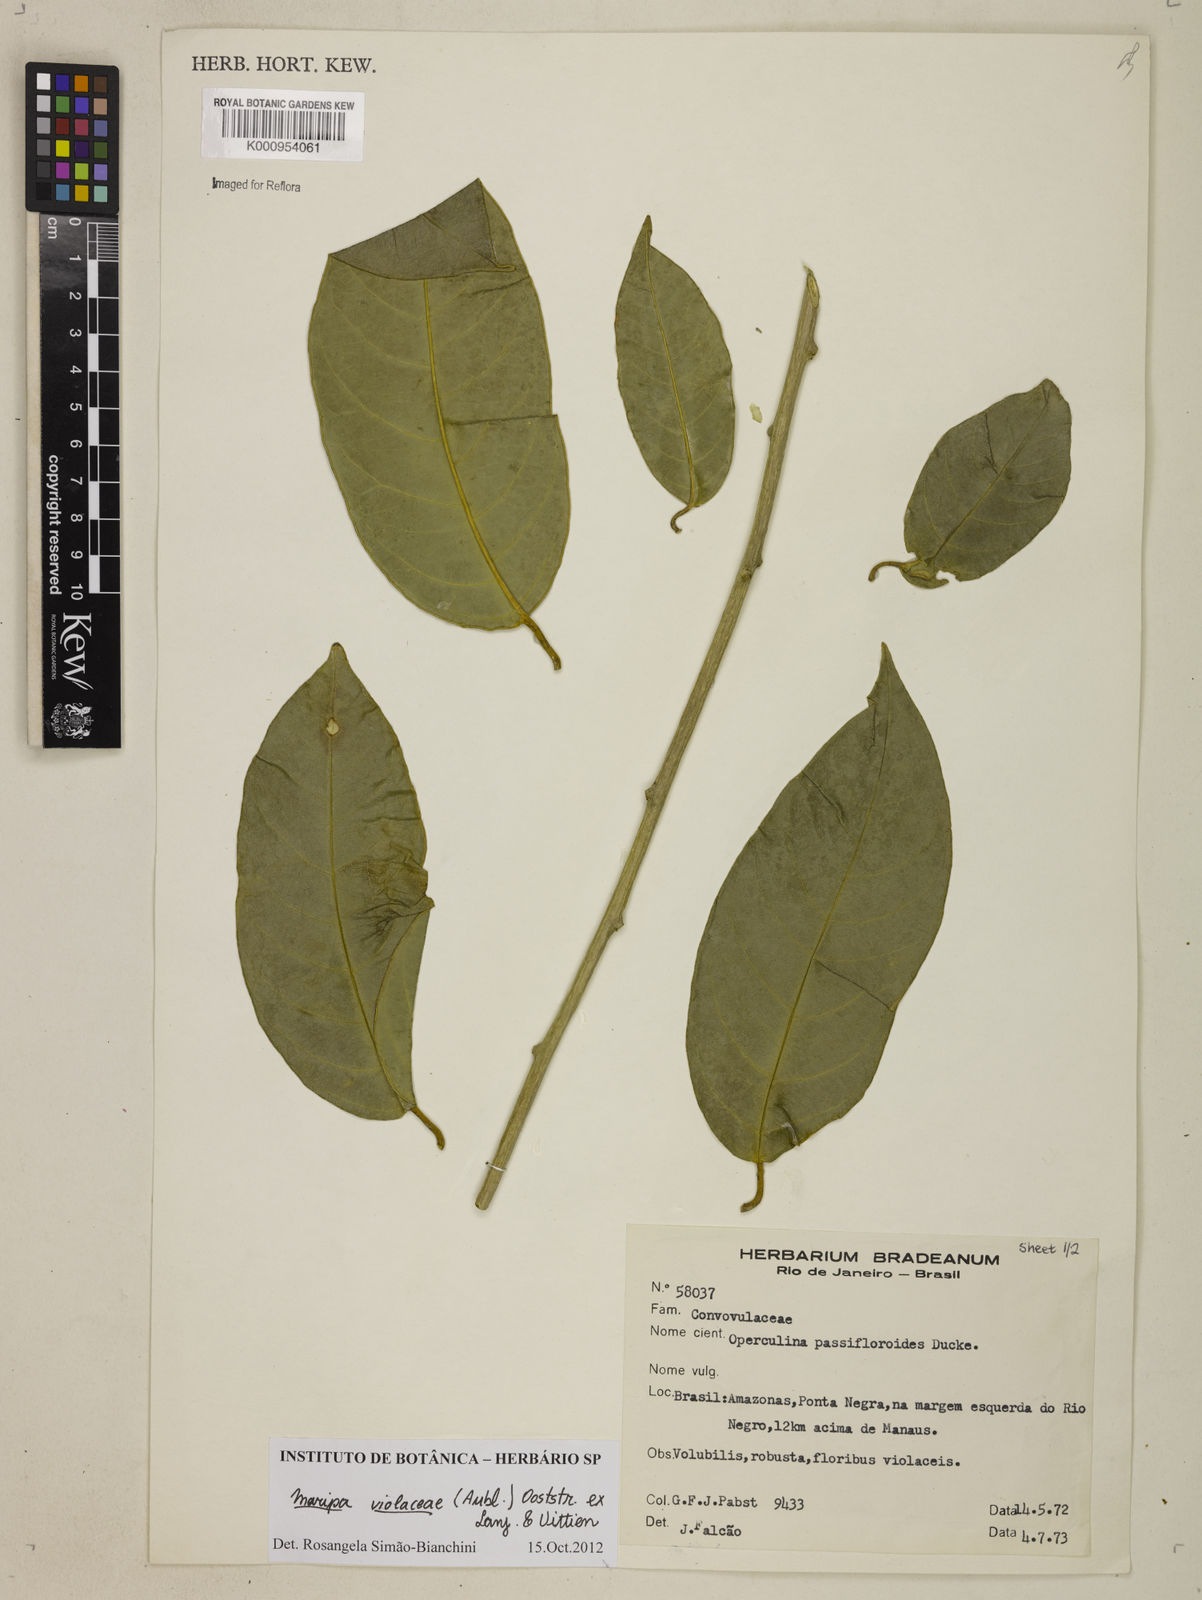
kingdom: Plantae
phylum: Tracheophyta
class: Magnoliopsida
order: Solanales
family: Convolvulaceae
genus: Maripa
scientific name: Maripa
